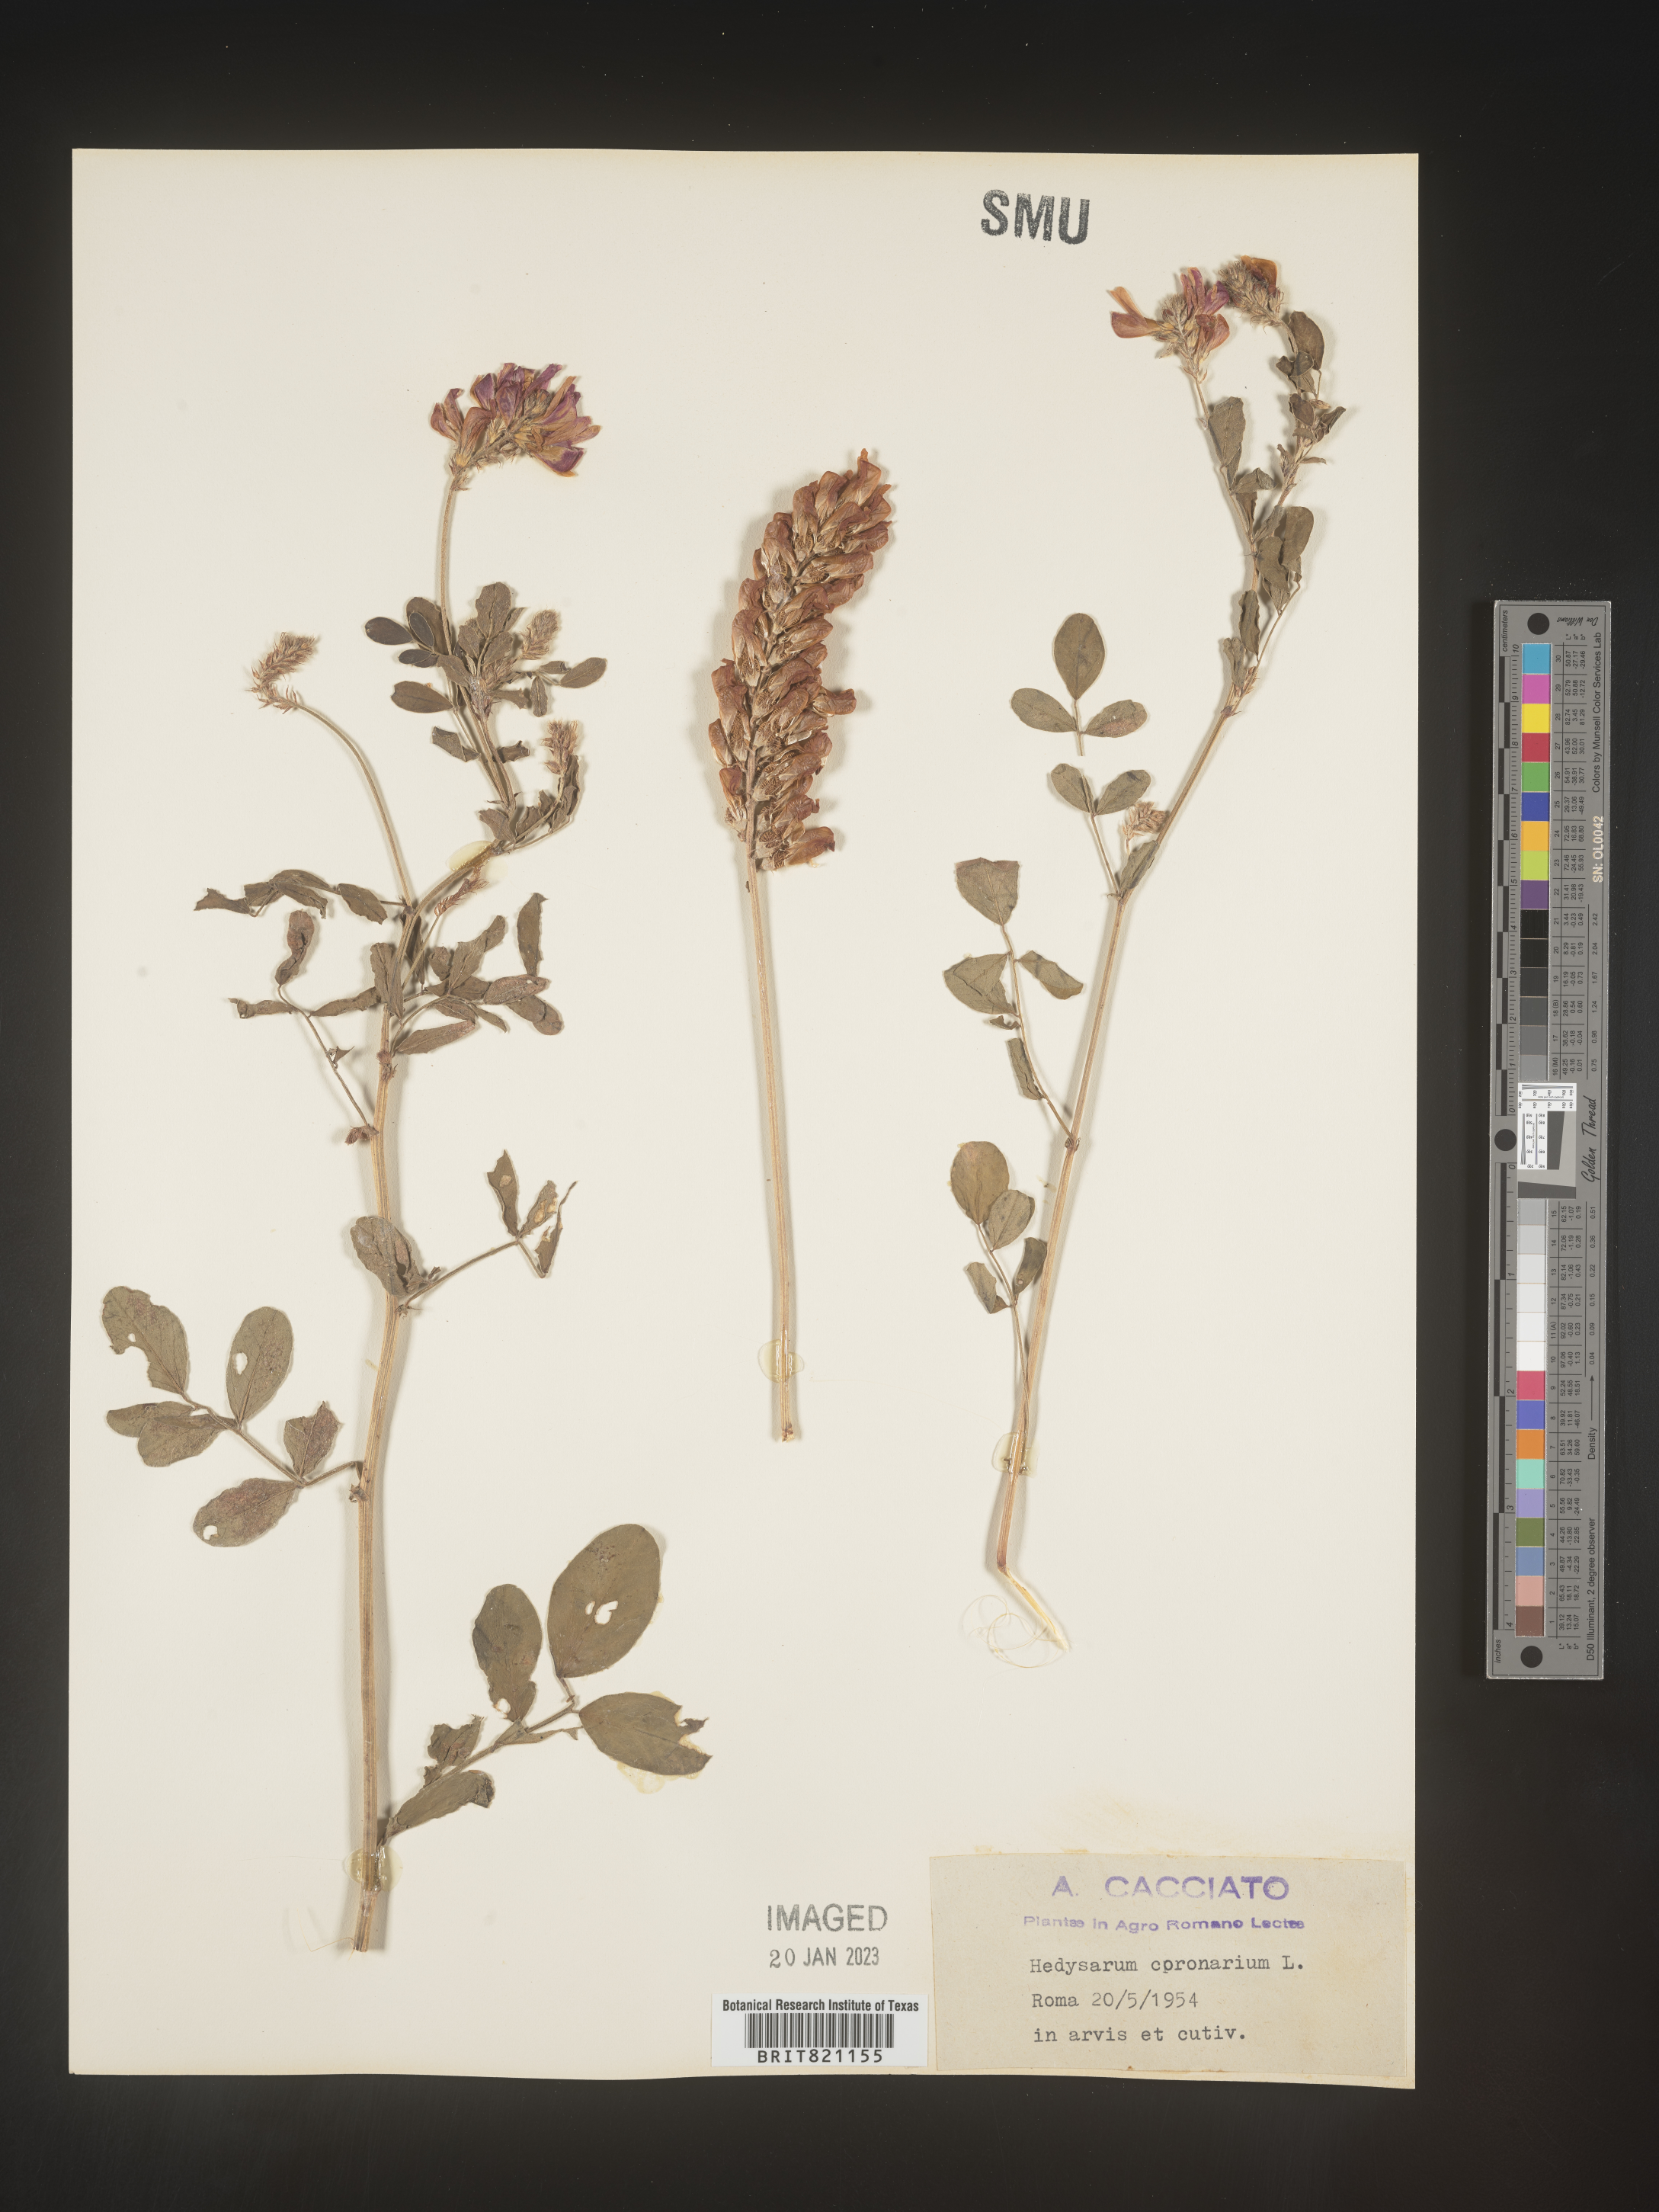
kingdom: Plantae
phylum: Tracheophyta
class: Magnoliopsida
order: Fabales
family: Fabaceae
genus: Hedysarum
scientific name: Hedysarum
